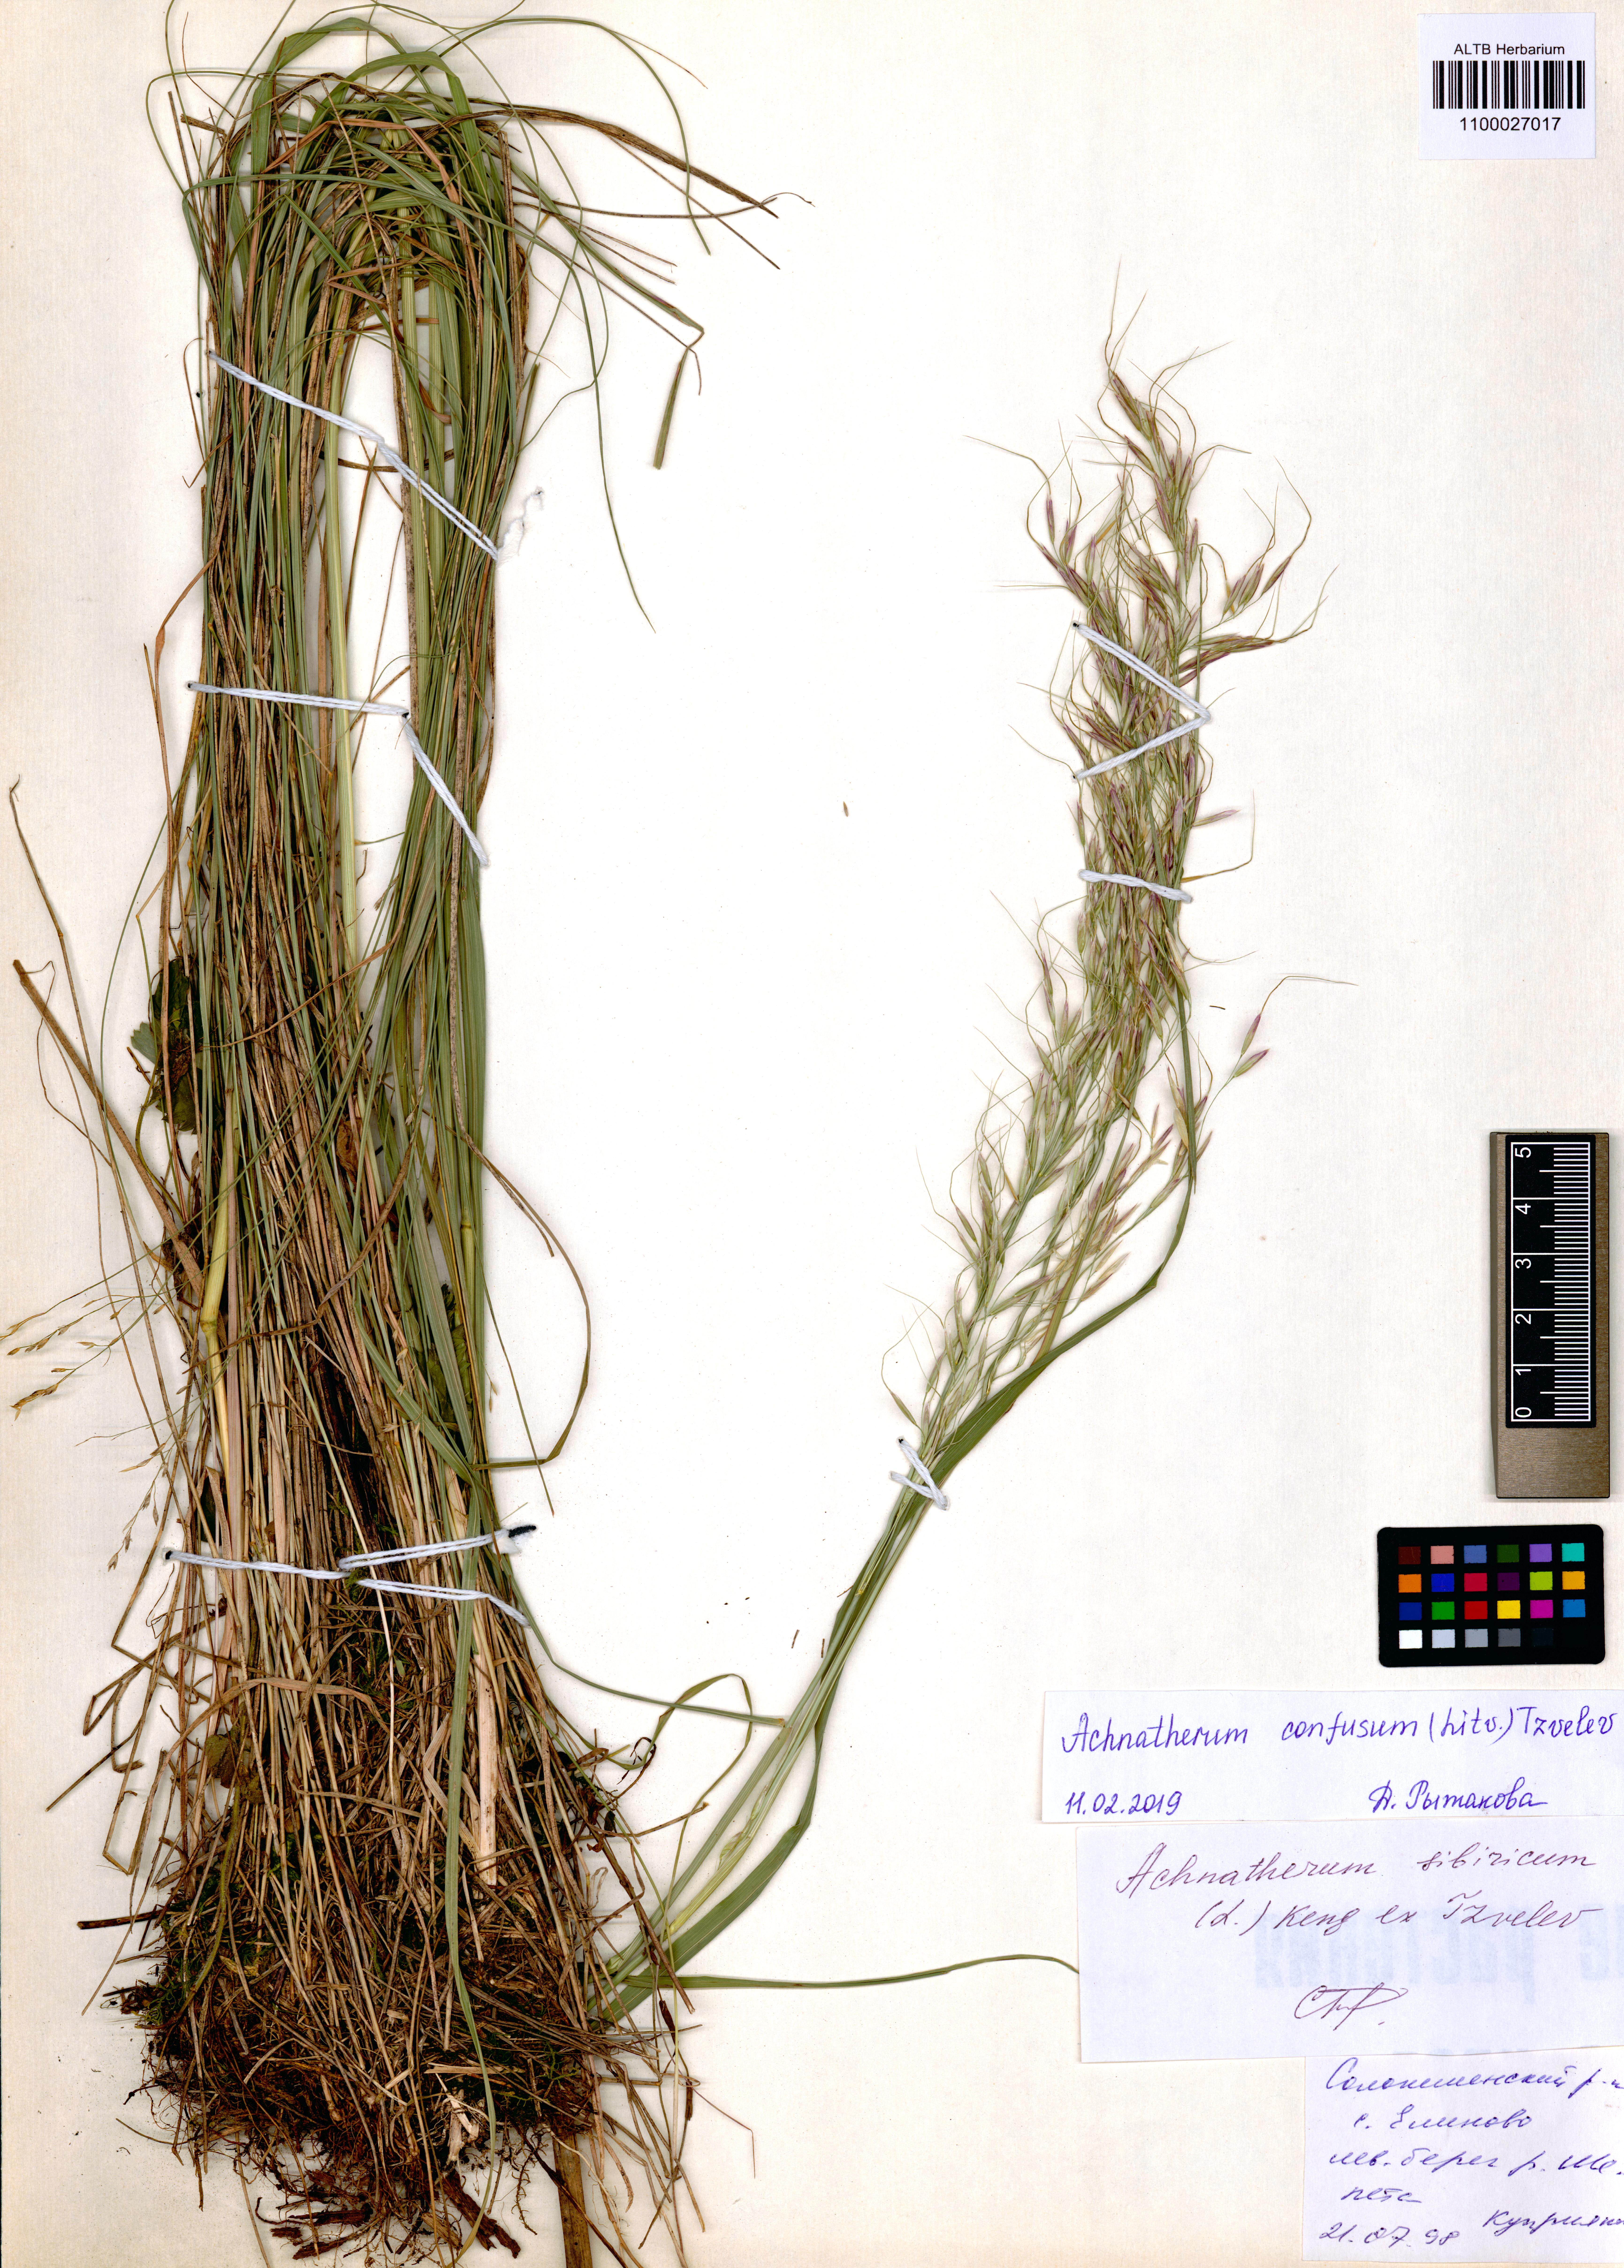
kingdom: Plantae
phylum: Tracheophyta
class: Liliopsida
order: Poales
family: Poaceae
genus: Achnatherum
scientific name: Achnatherum confusum
